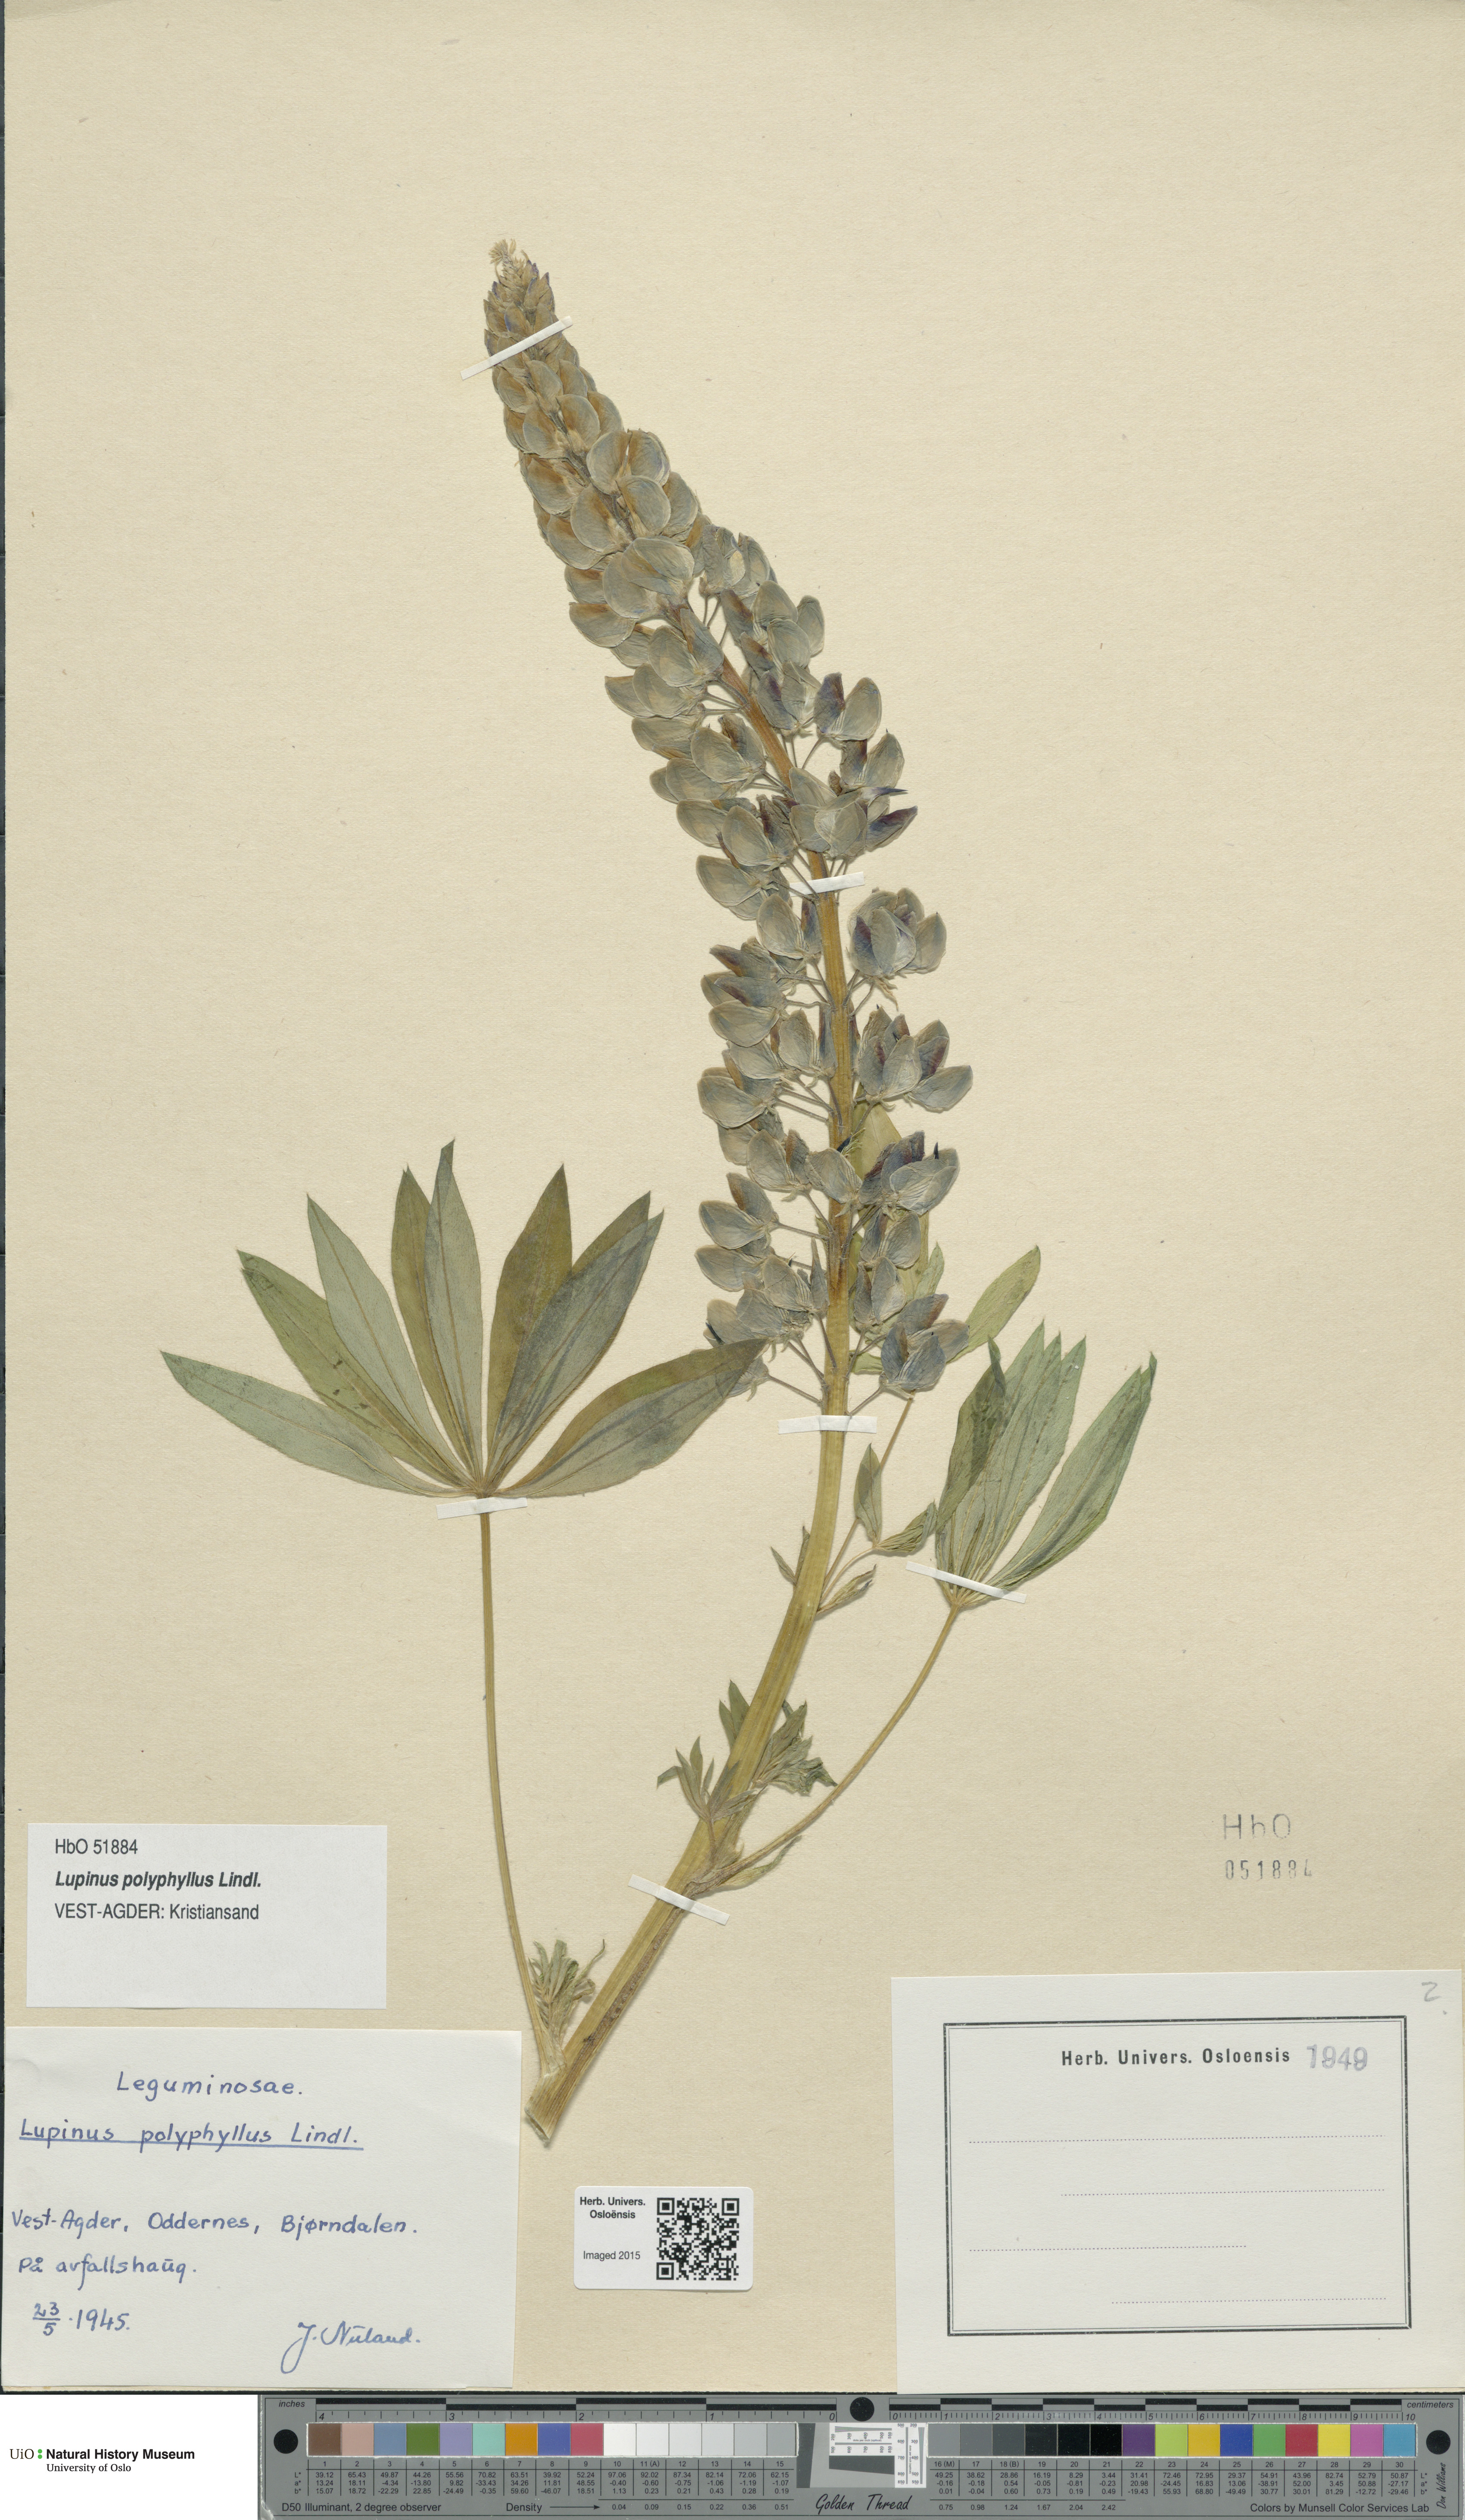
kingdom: Plantae
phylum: Tracheophyta
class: Magnoliopsida
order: Fabales
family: Fabaceae
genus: Lupinus
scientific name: Lupinus polyphyllus
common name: Garden lupin
